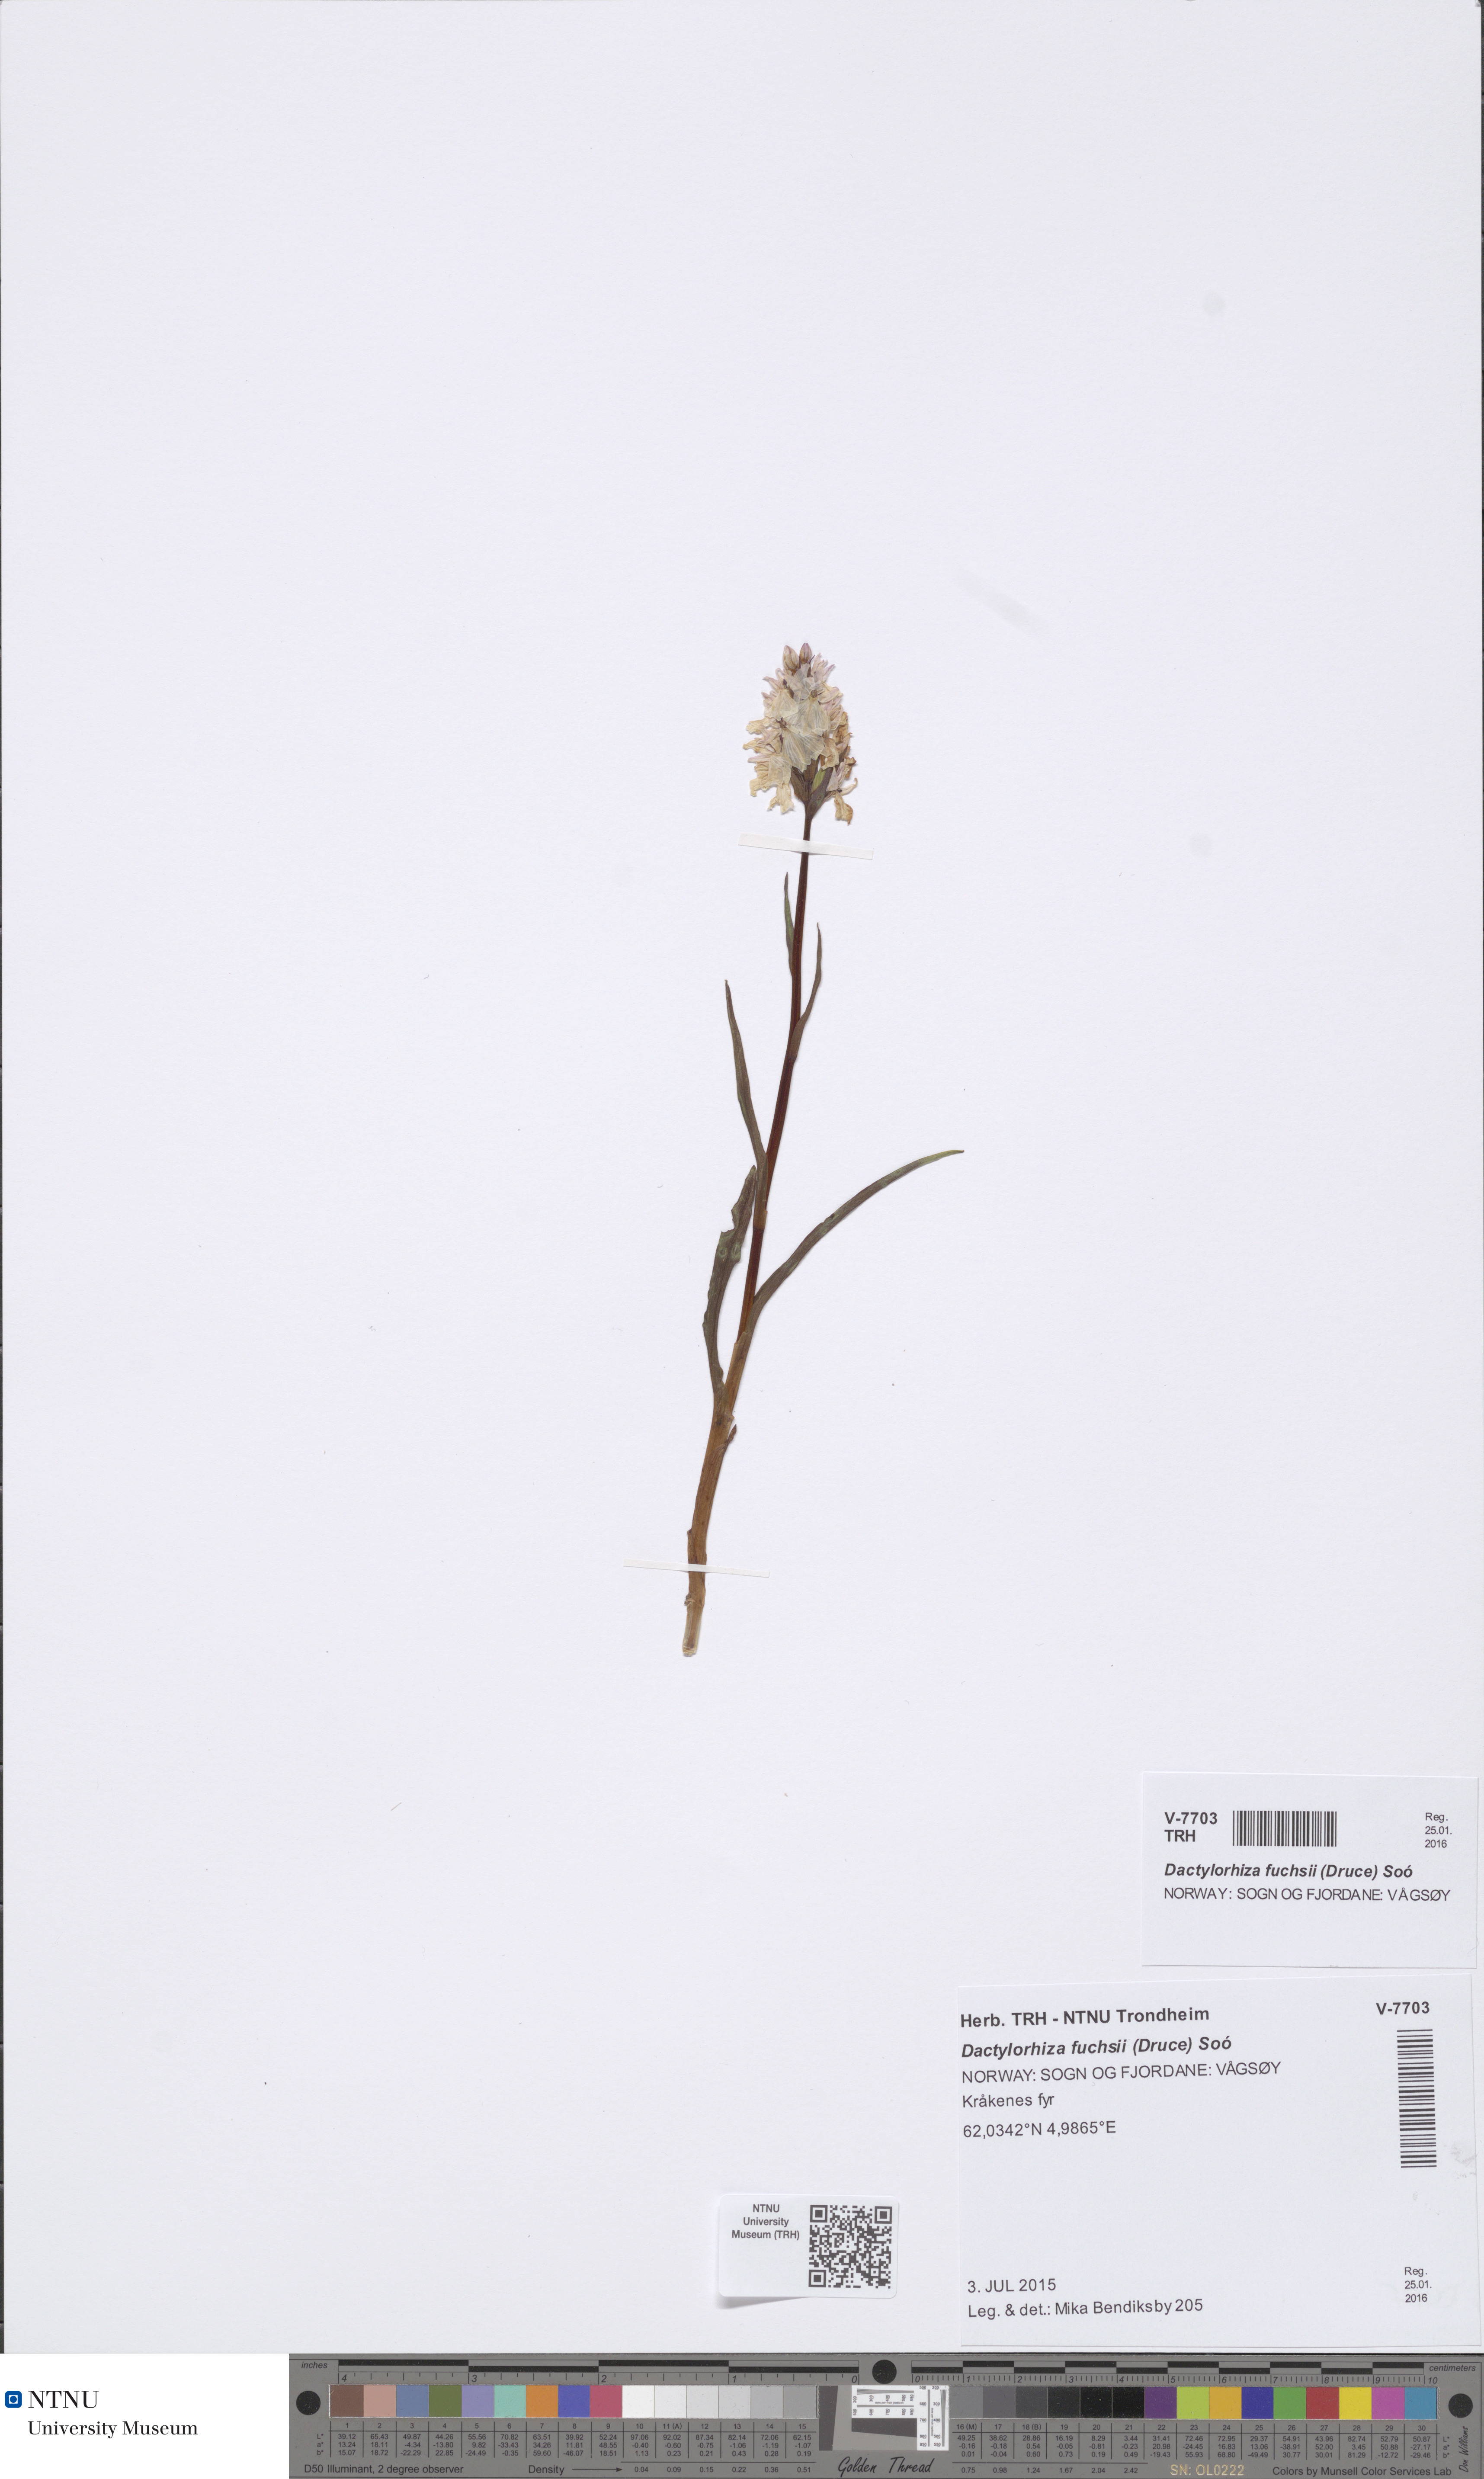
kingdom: Plantae
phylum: Tracheophyta
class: Liliopsida
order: Asparagales
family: Orchidaceae
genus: Dactylorhiza
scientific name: Dactylorhiza maculata
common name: Heath spotted-orchid
